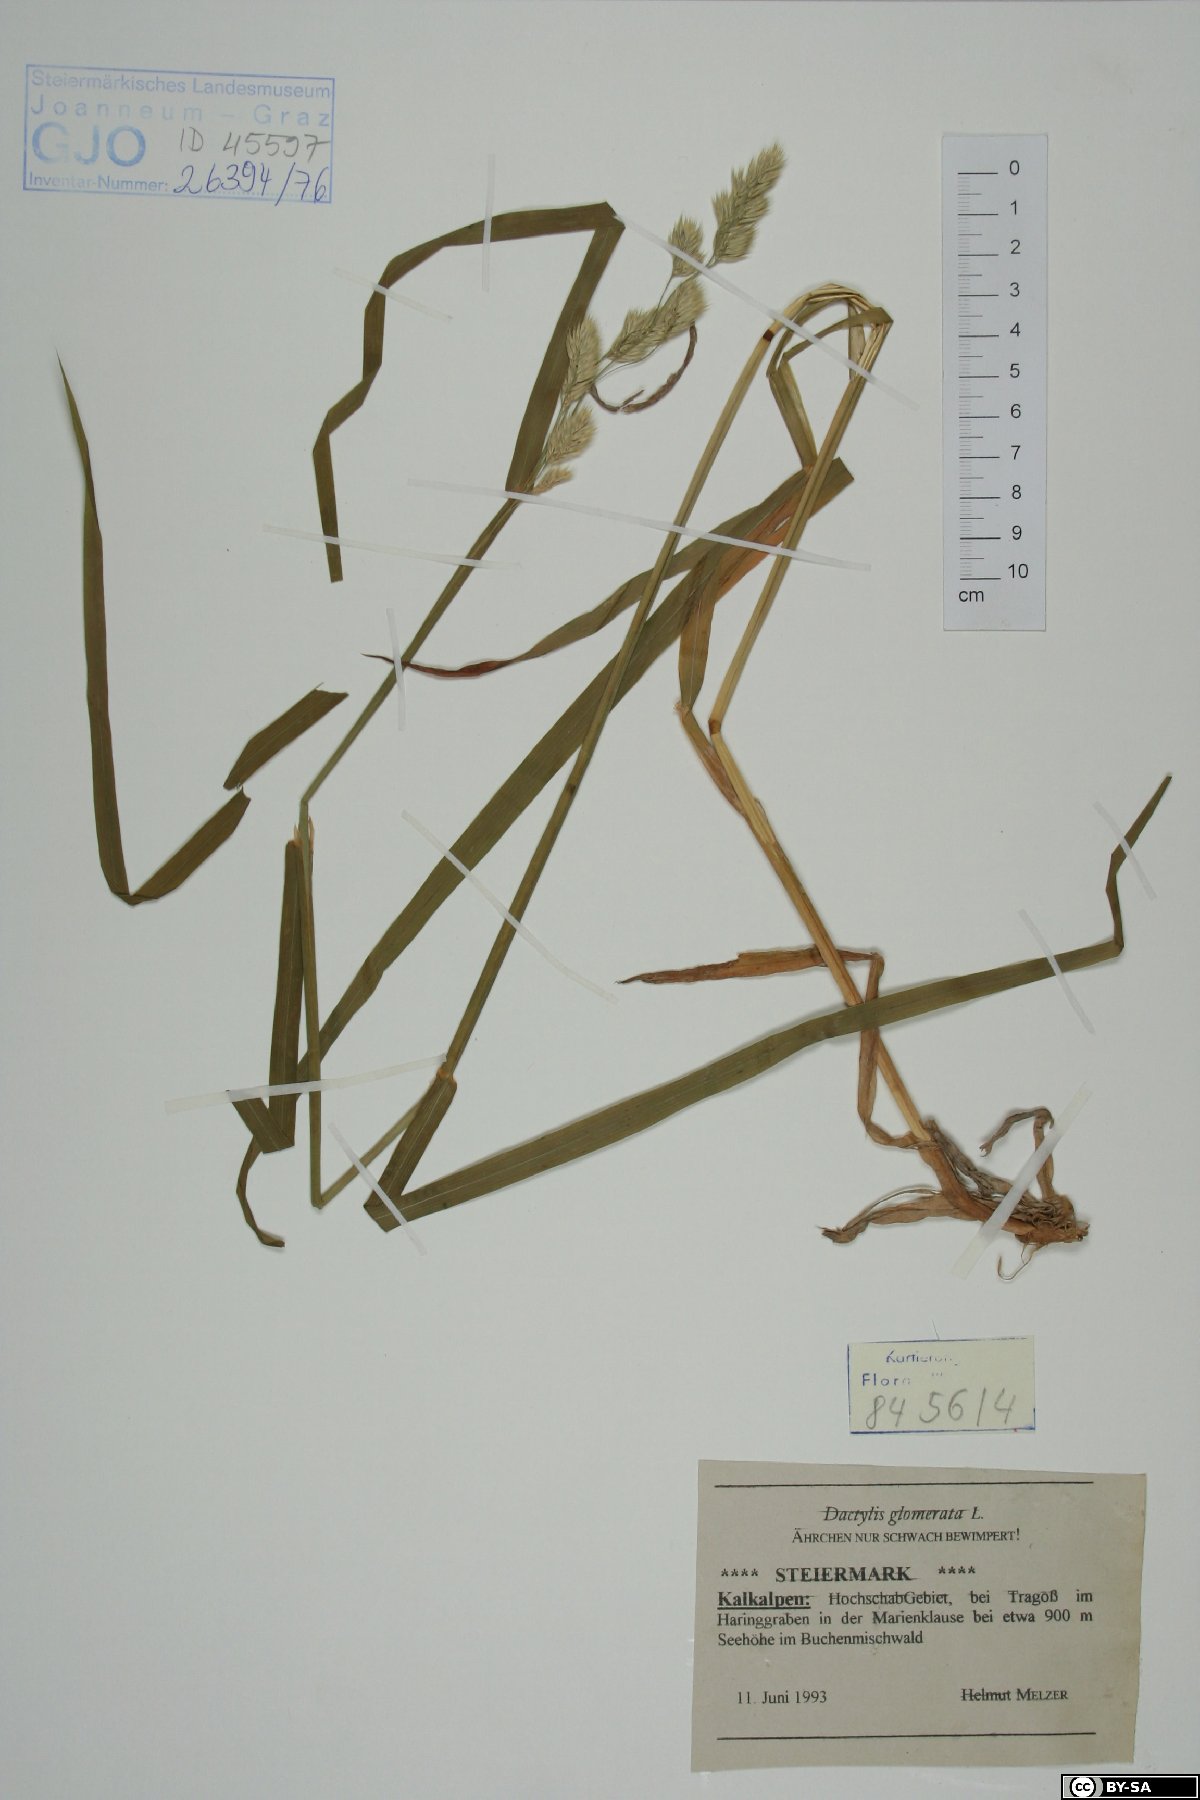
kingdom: Plantae
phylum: Tracheophyta
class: Liliopsida
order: Poales
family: Poaceae
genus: Dactylis
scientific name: Dactylis glomerata
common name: Orchardgrass
